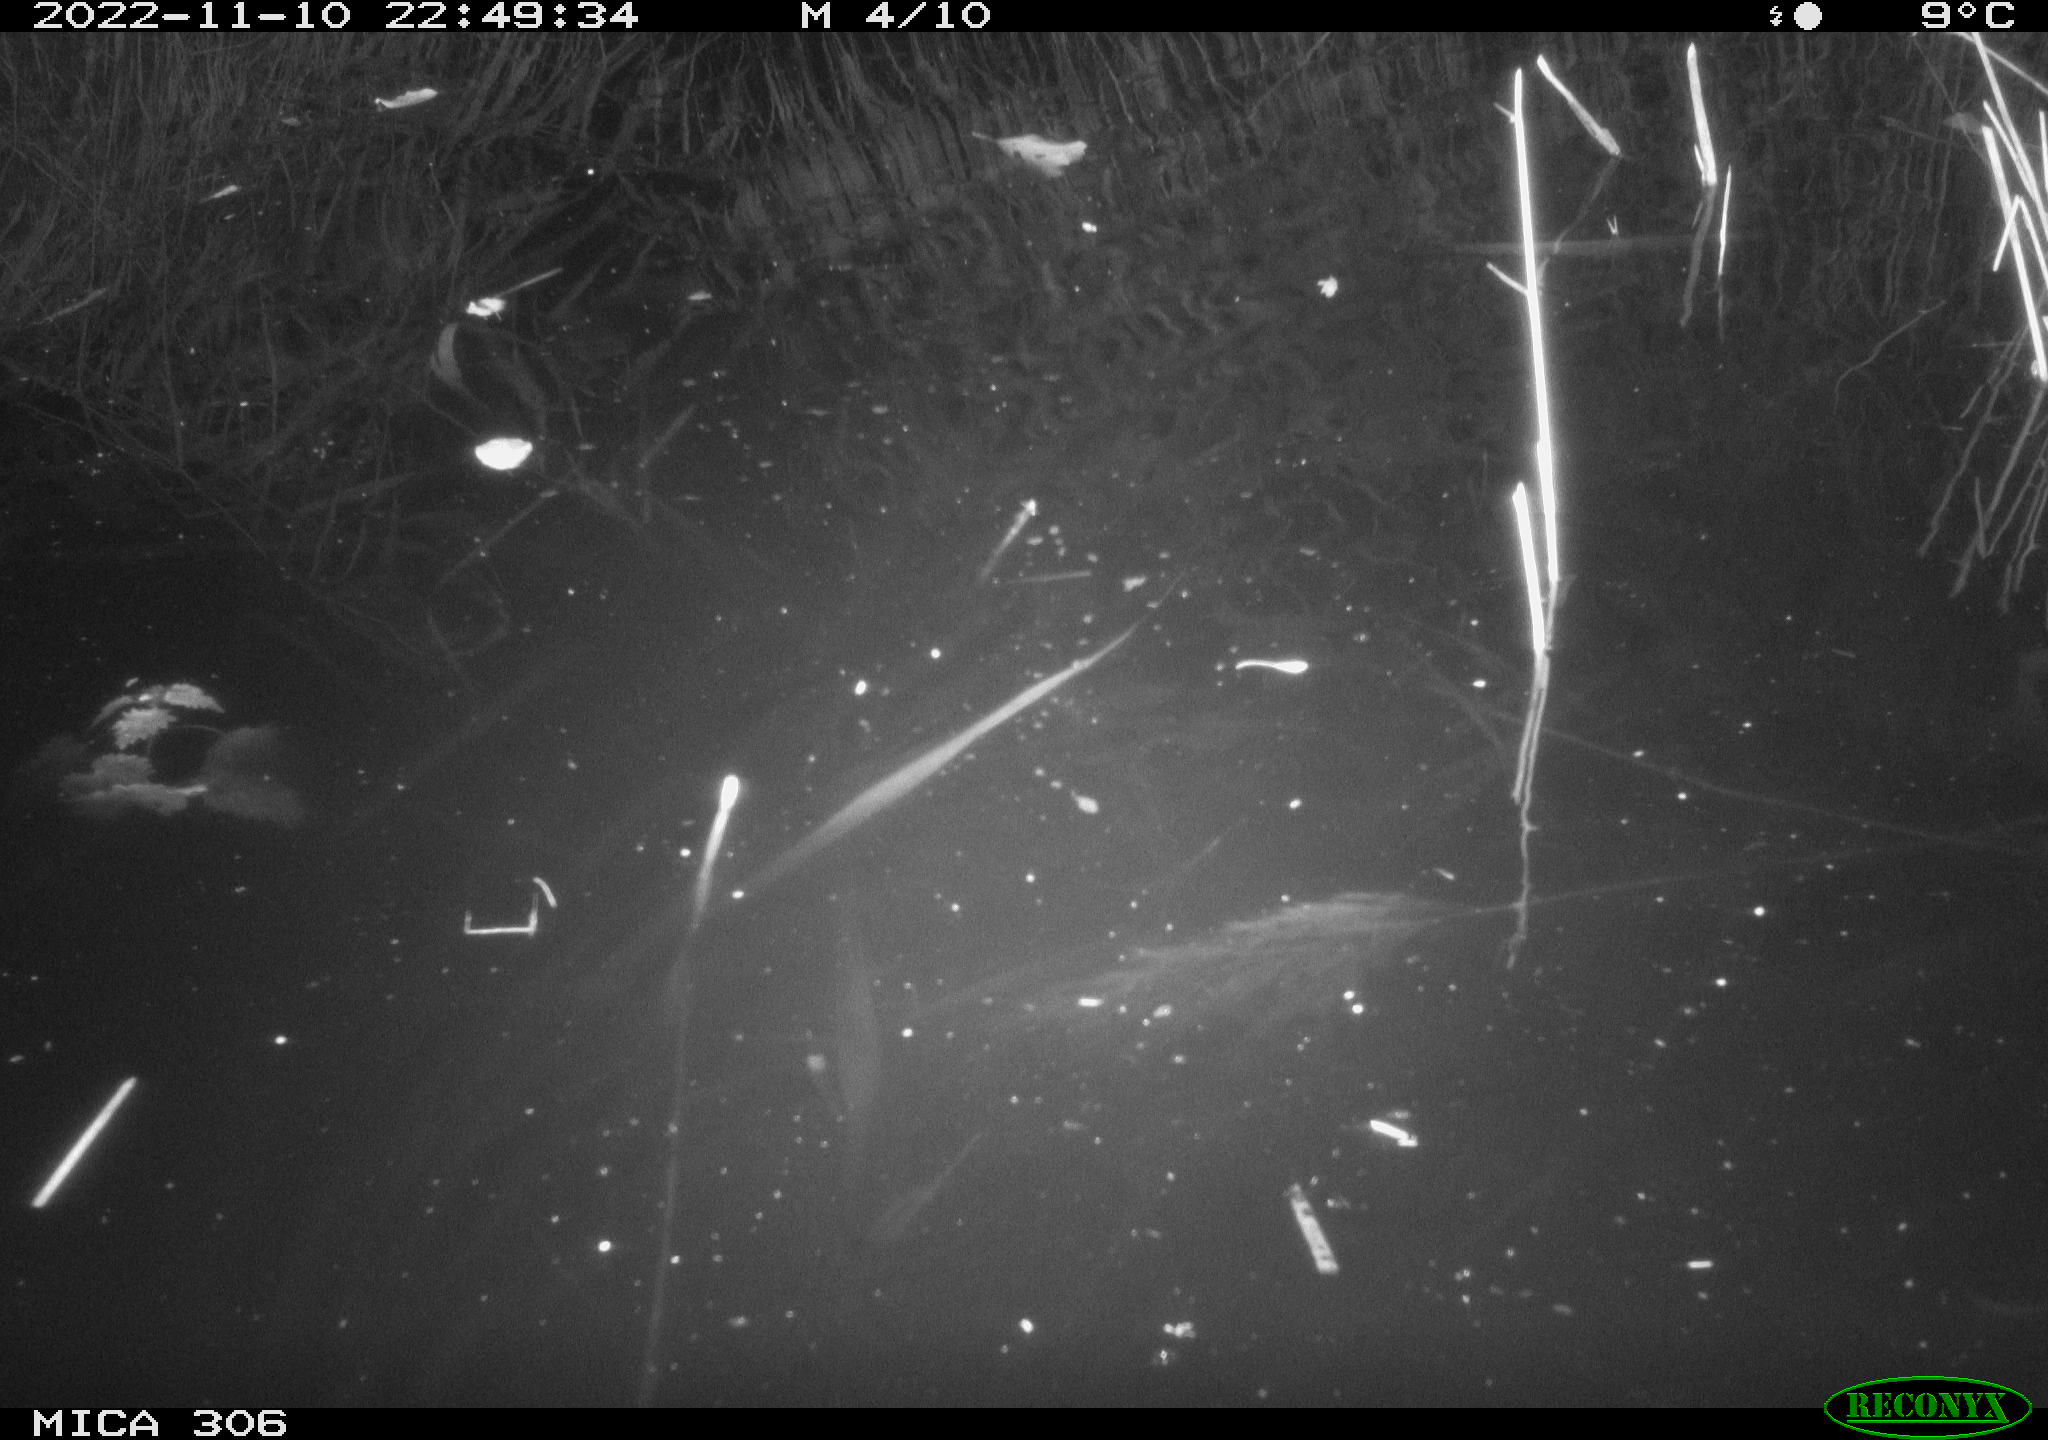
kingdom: Animalia
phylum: Chordata
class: Mammalia
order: Rodentia
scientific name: Rodentia
